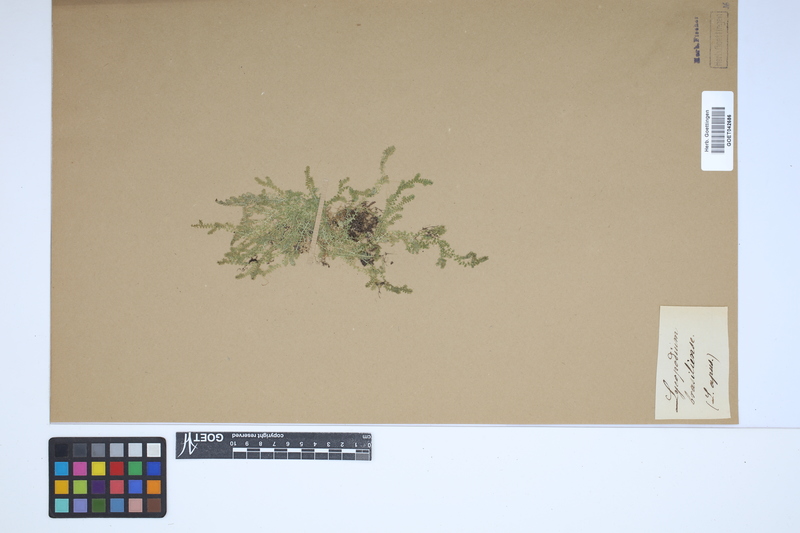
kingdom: Plantae
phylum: Tracheophyta
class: Lycopodiopsida
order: Selaginellales
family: Selaginellaceae
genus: Selaginella
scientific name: Selaginella muscosa
